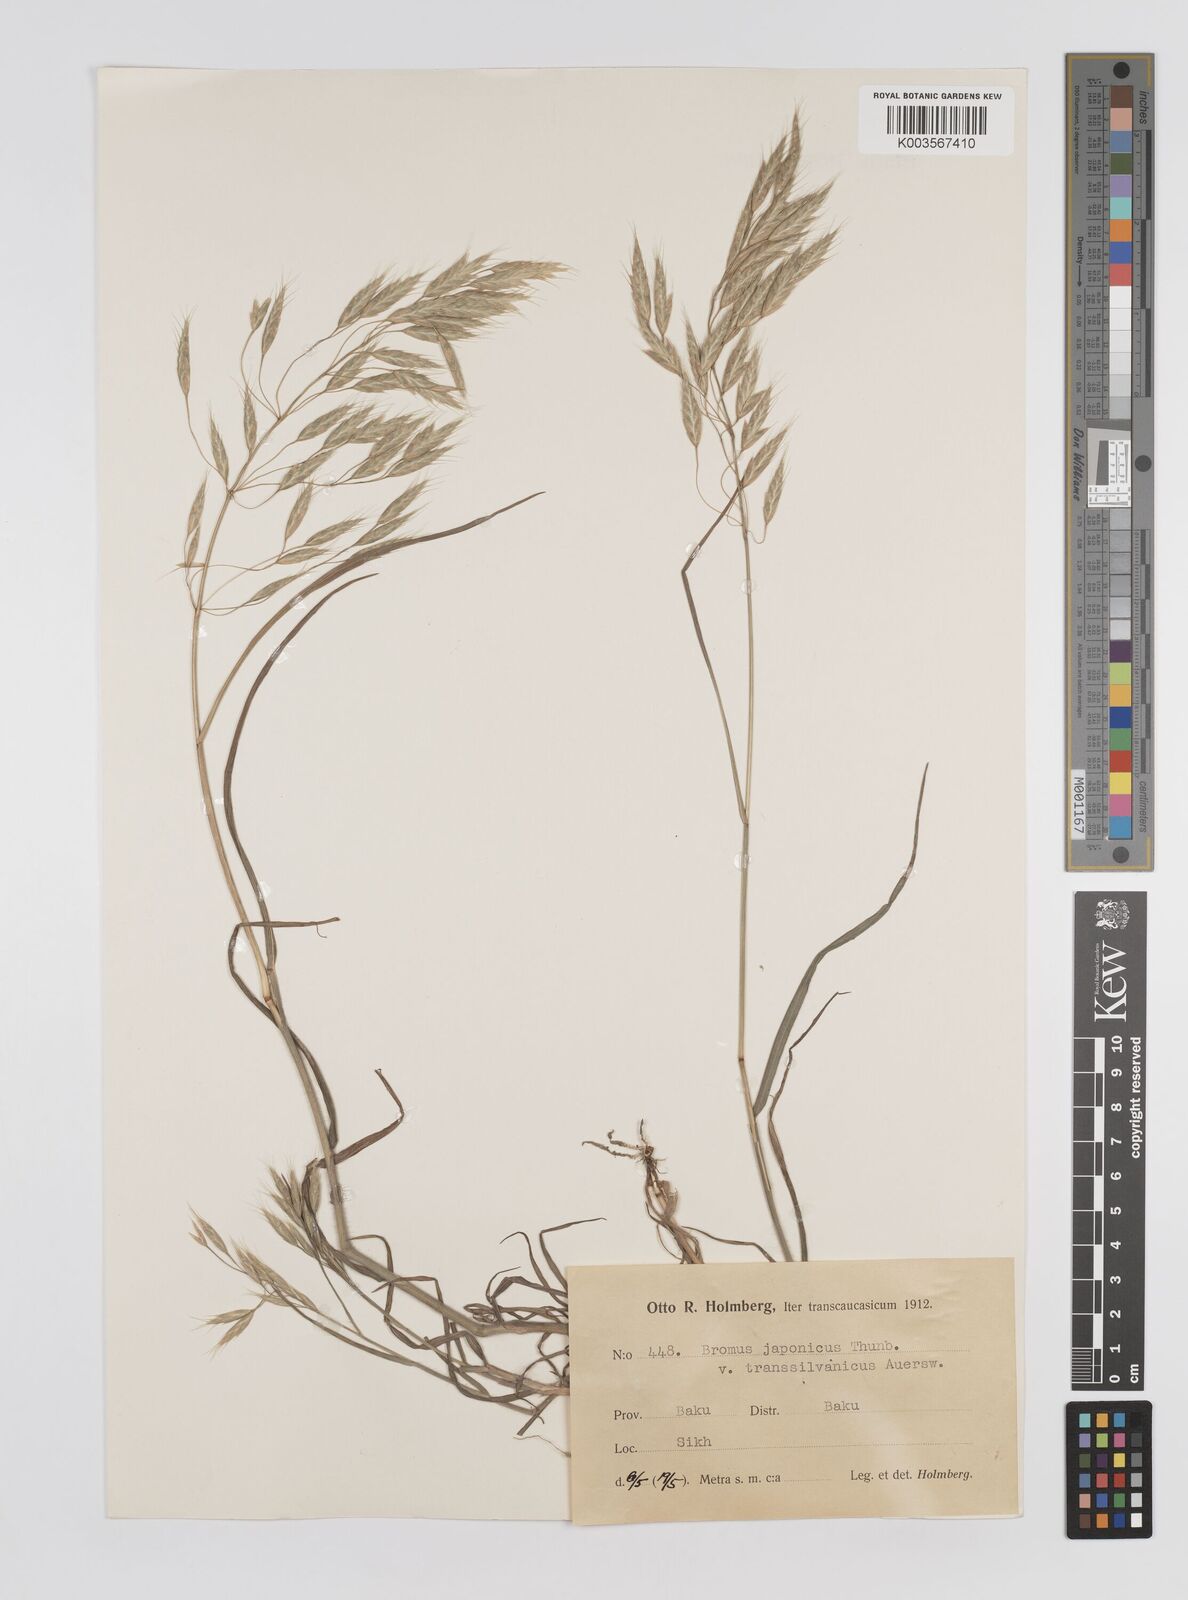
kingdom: Plantae
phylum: Tracheophyta
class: Liliopsida
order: Poales
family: Poaceae
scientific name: Poaceae
